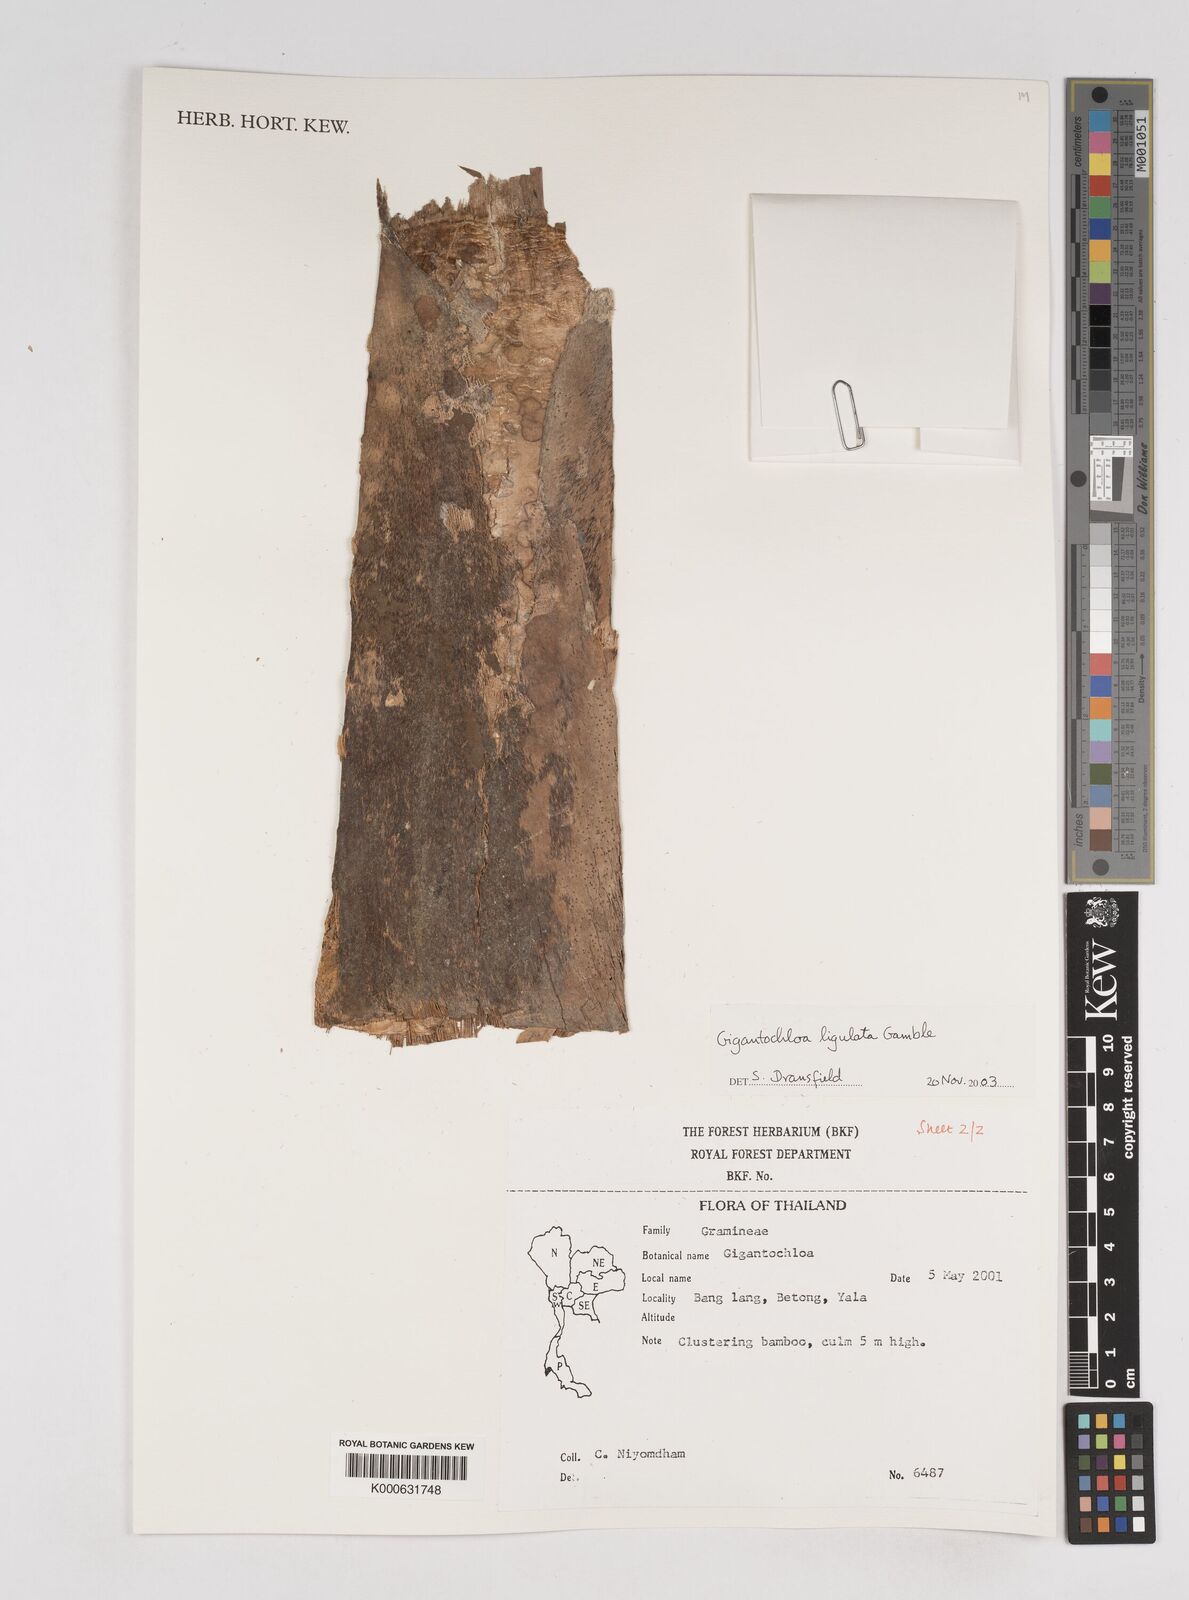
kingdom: Plantae
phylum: Tracheophyta
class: Liliopsida
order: Poales
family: Poaceae
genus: Gigantochloa
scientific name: Gigantochloa ligulata
